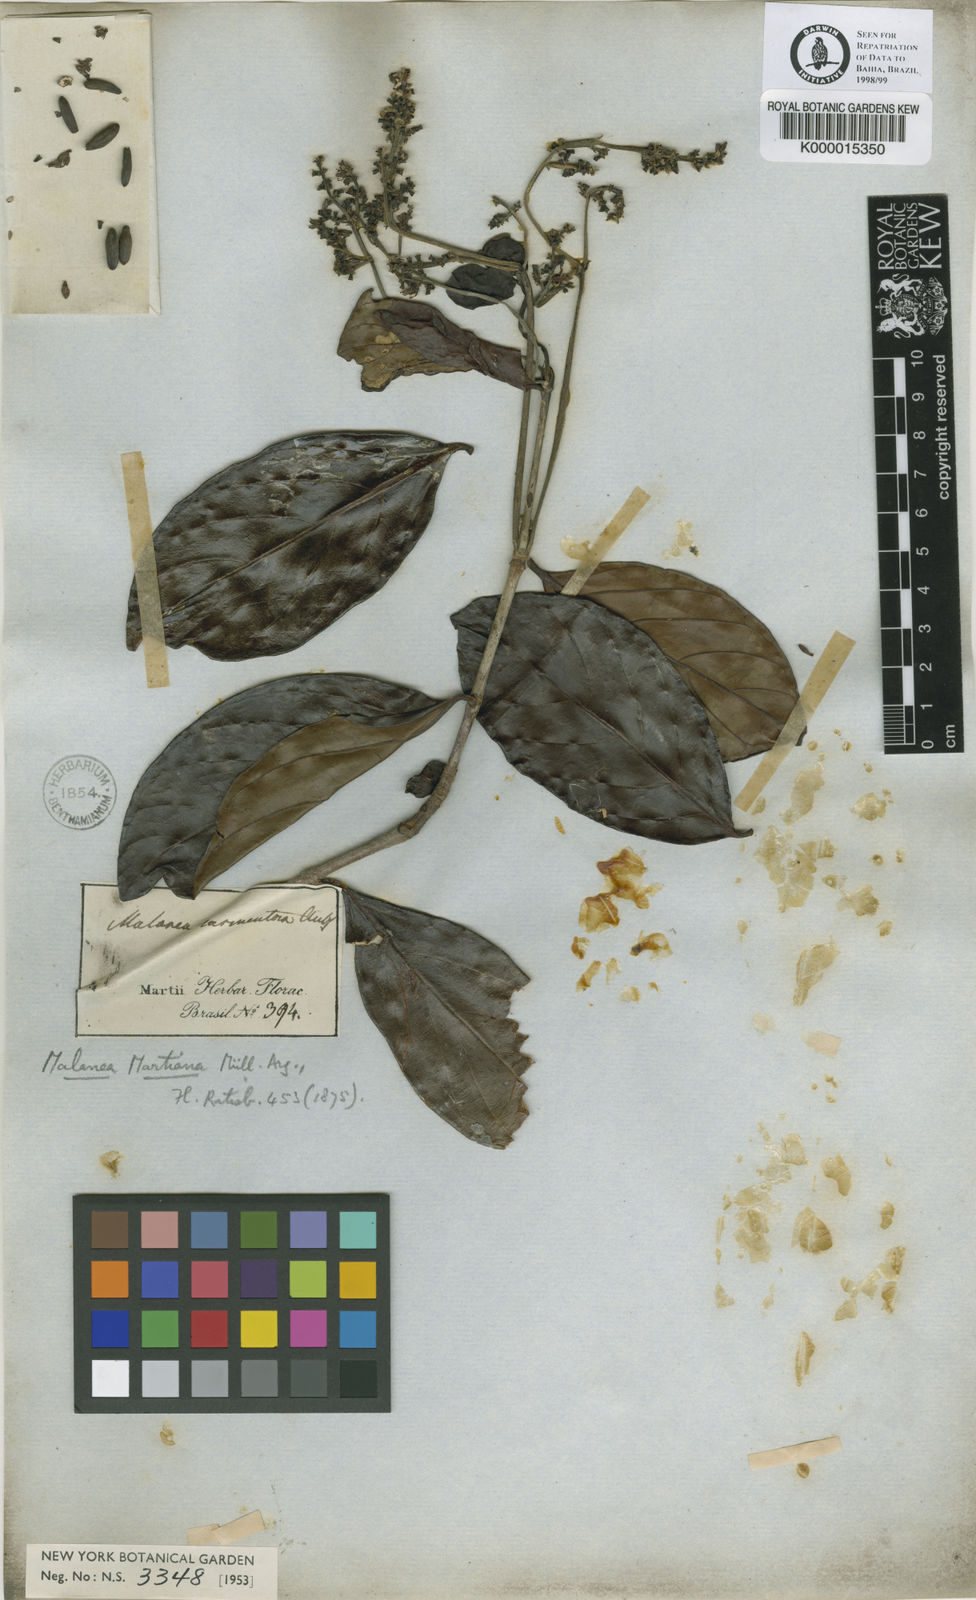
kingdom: Plantae
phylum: Tracheophyta
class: Magnoliopsida
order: Gentianales
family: Rubiaceae
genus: Malanea
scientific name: Malanea martiana
